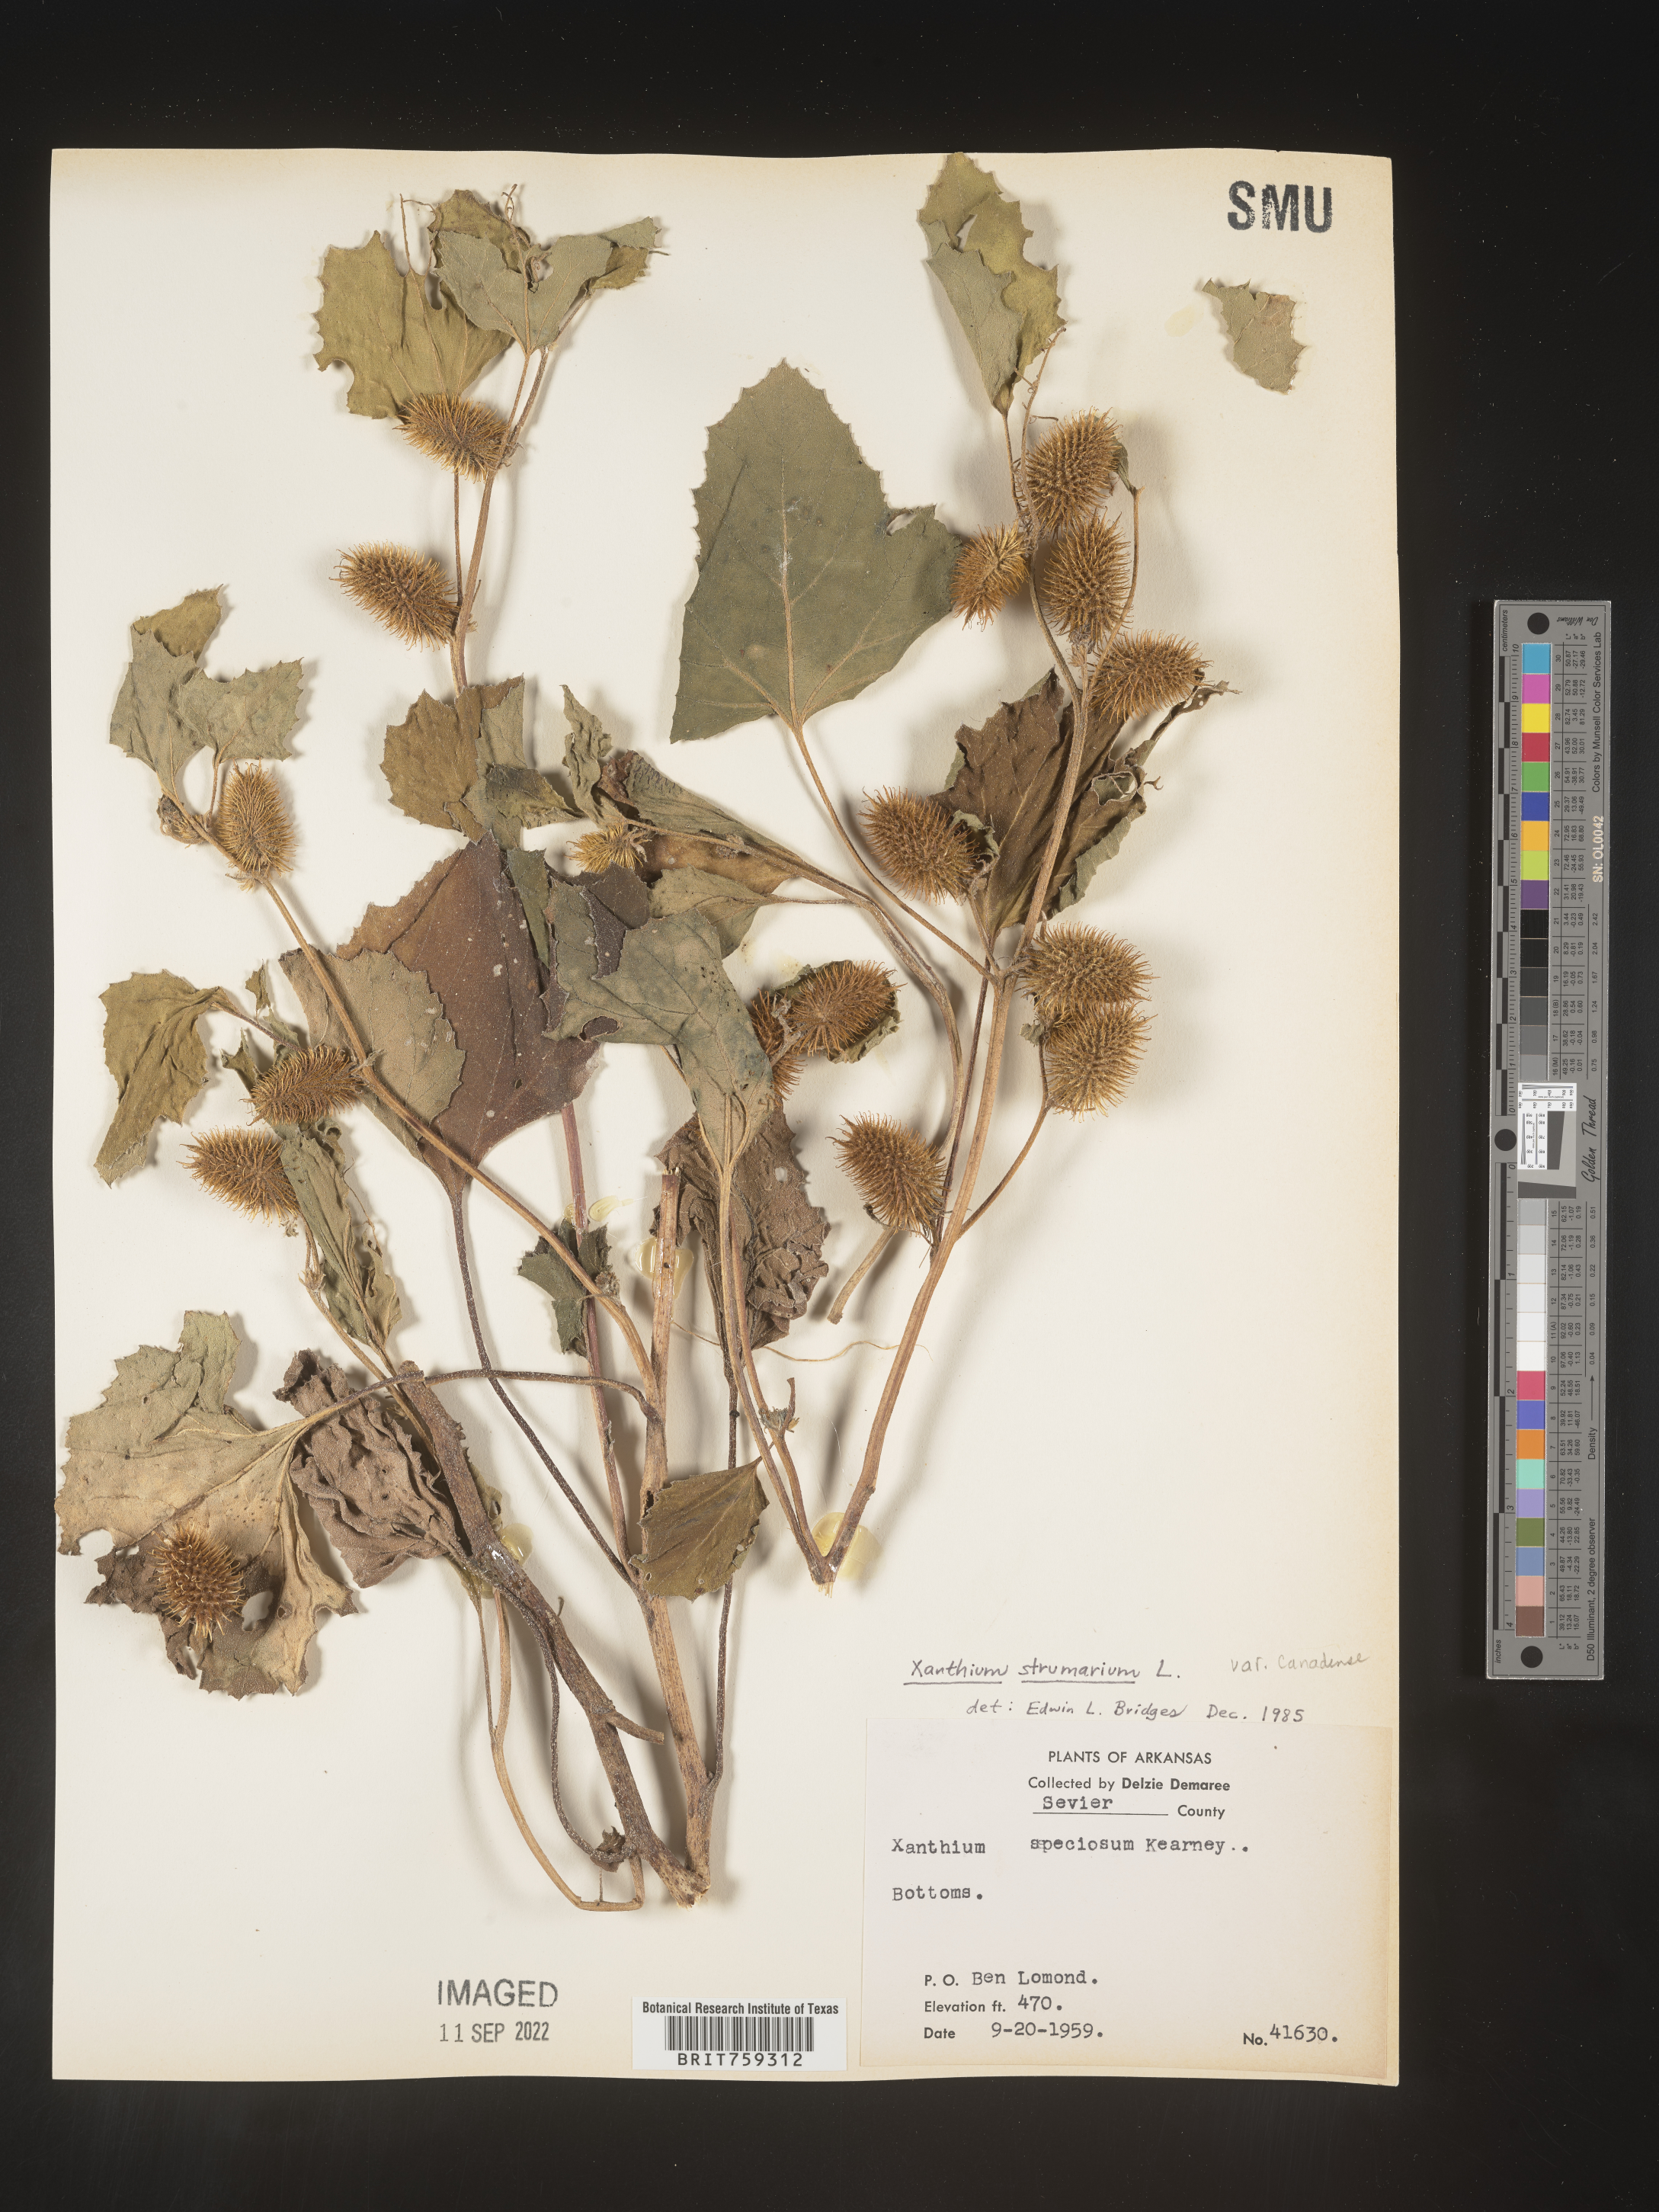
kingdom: Plantae
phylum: Tracheophyta
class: Magnoliopsida
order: Asterales
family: Asteraceae
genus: Xanthium
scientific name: Xanthium orientale
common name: Californian burr
